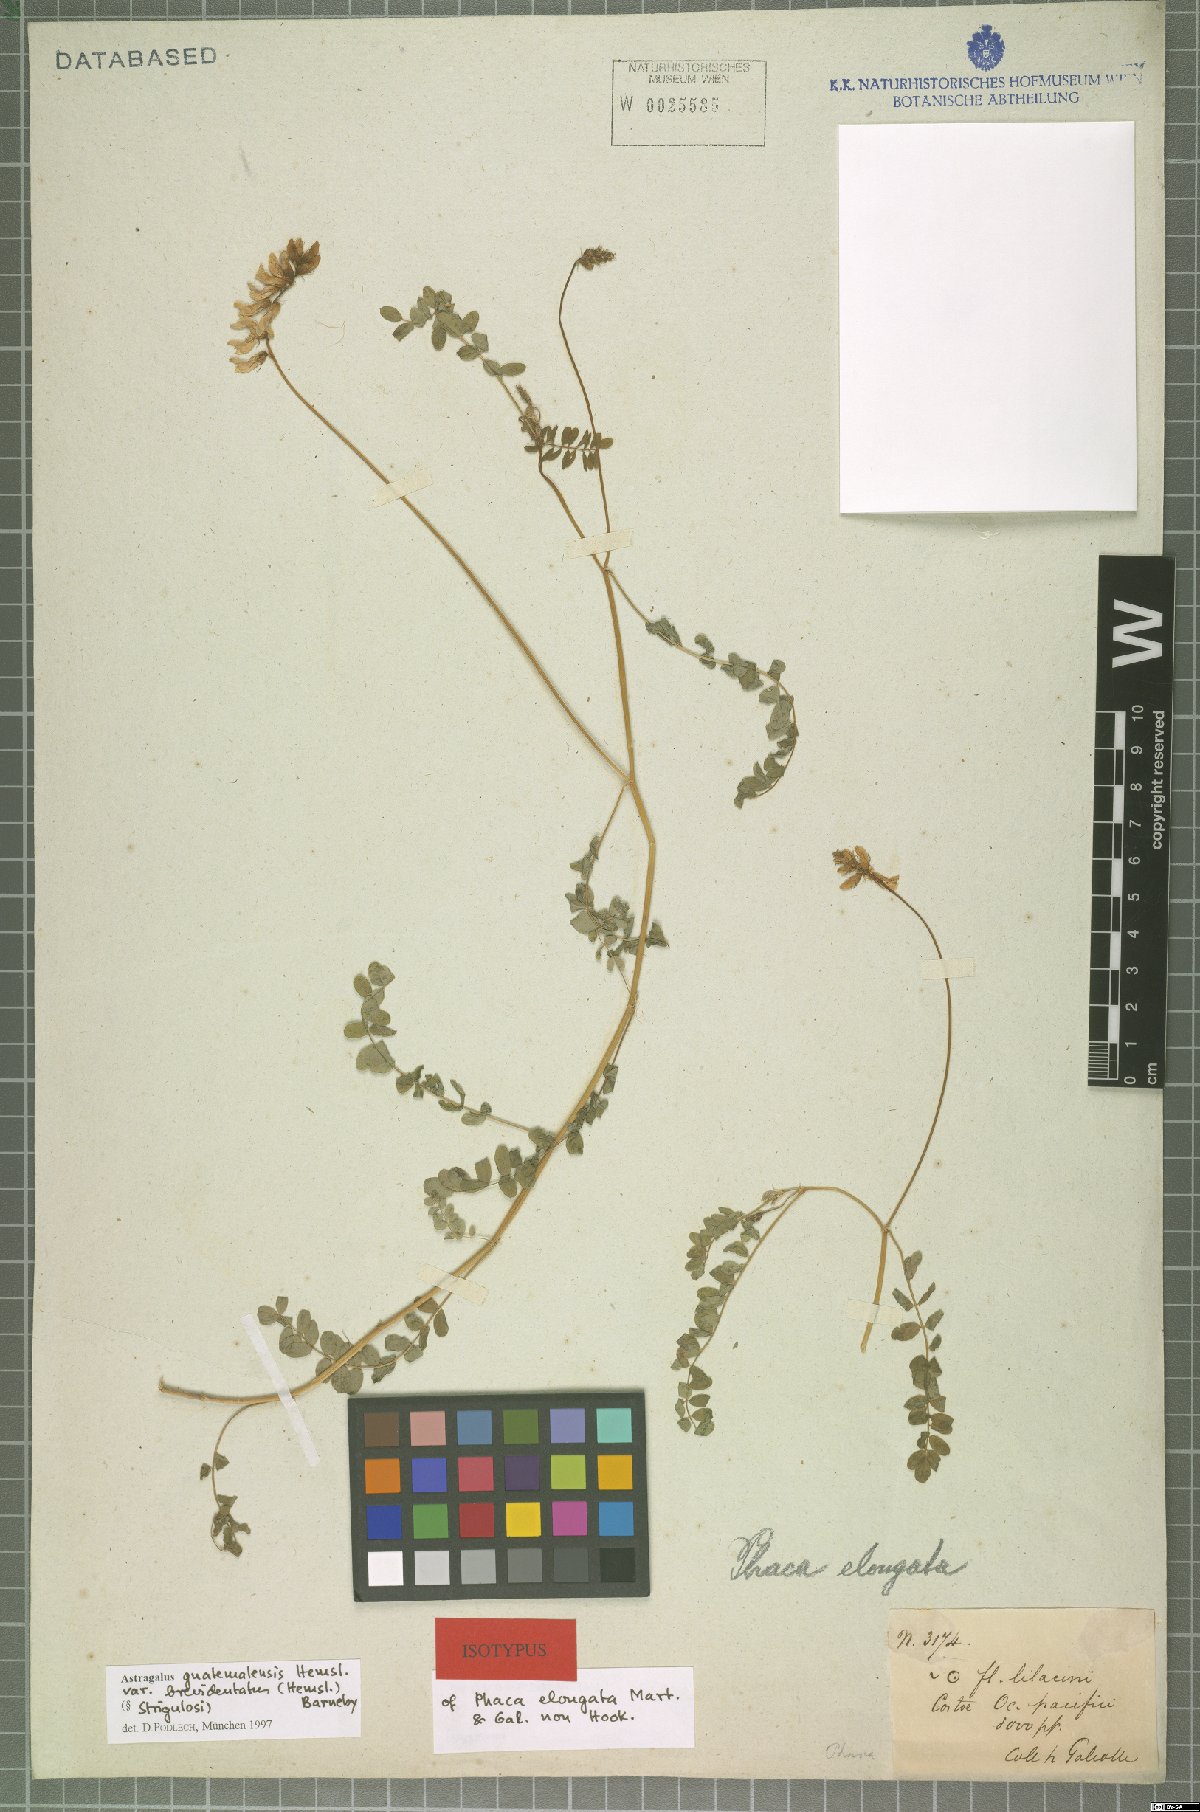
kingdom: Plantae
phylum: Tracheophyta
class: Magnoliopsida
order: Fabales
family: Fabaceae
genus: Astragalus
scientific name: Astragalus guatemalensis
